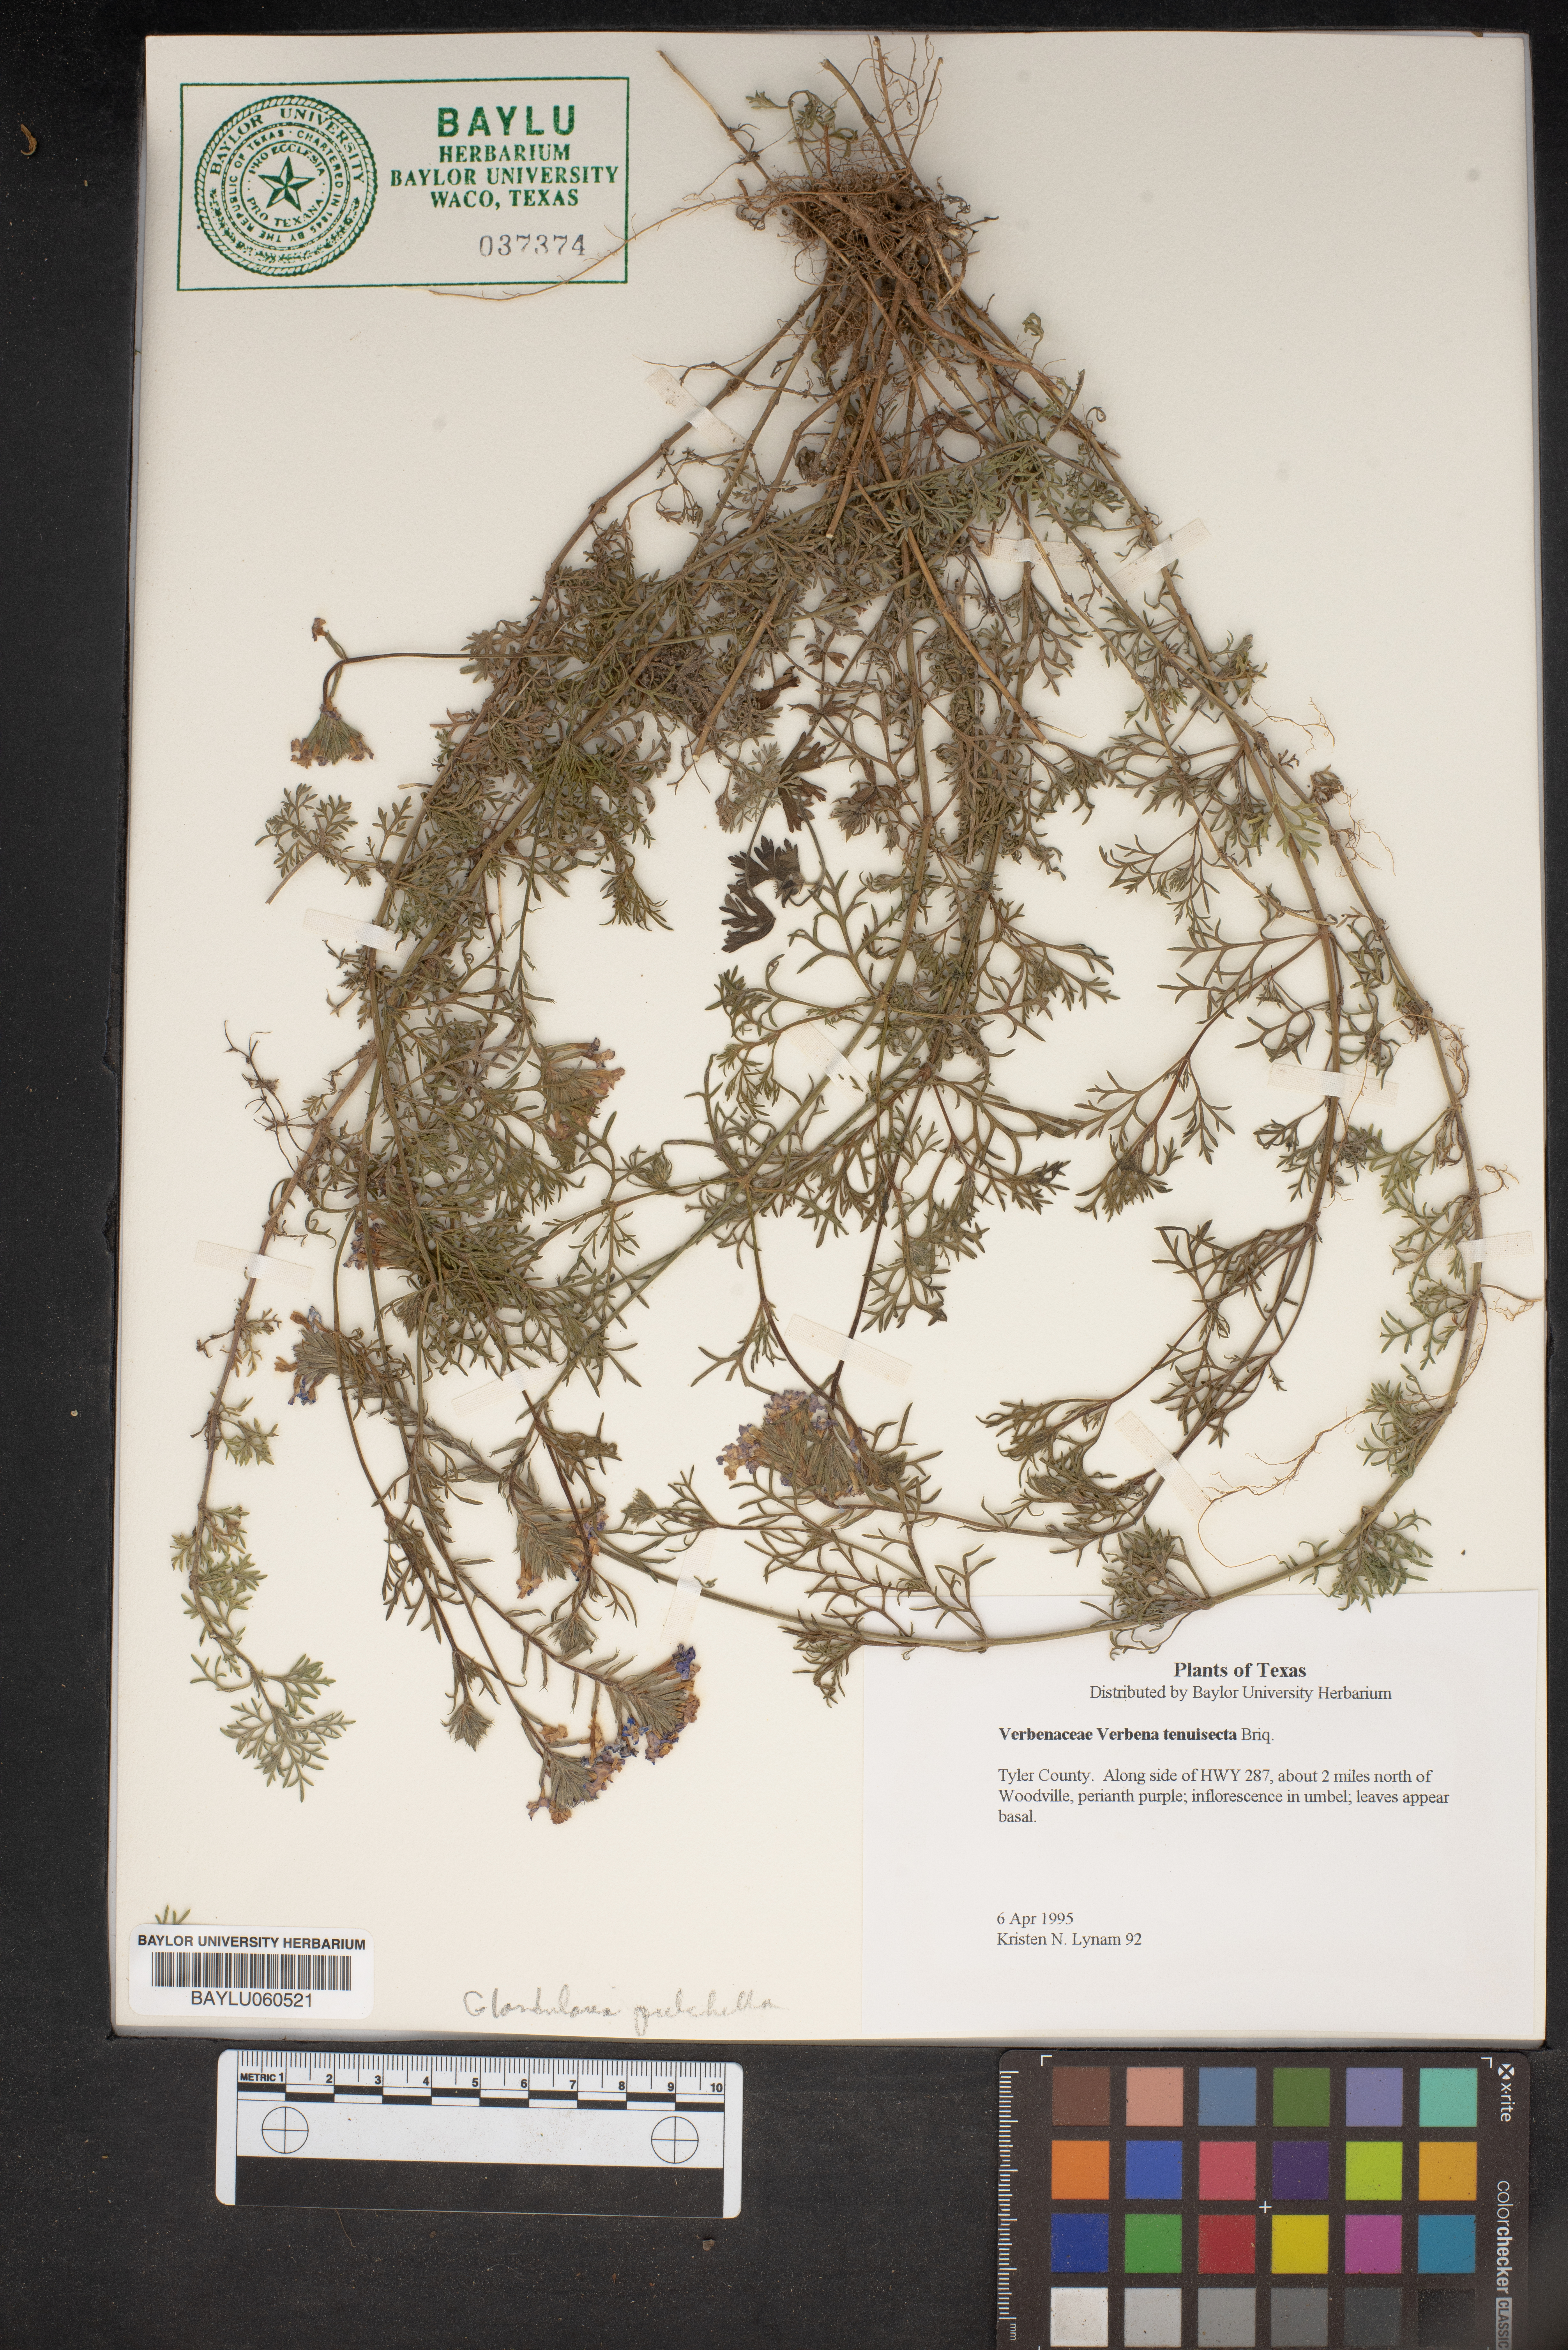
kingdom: Plantae
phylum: Tracheophyta
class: Magnoliopsida
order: Lamiales
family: Verbenaceae
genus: Verbena
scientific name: Verbena aristigera
